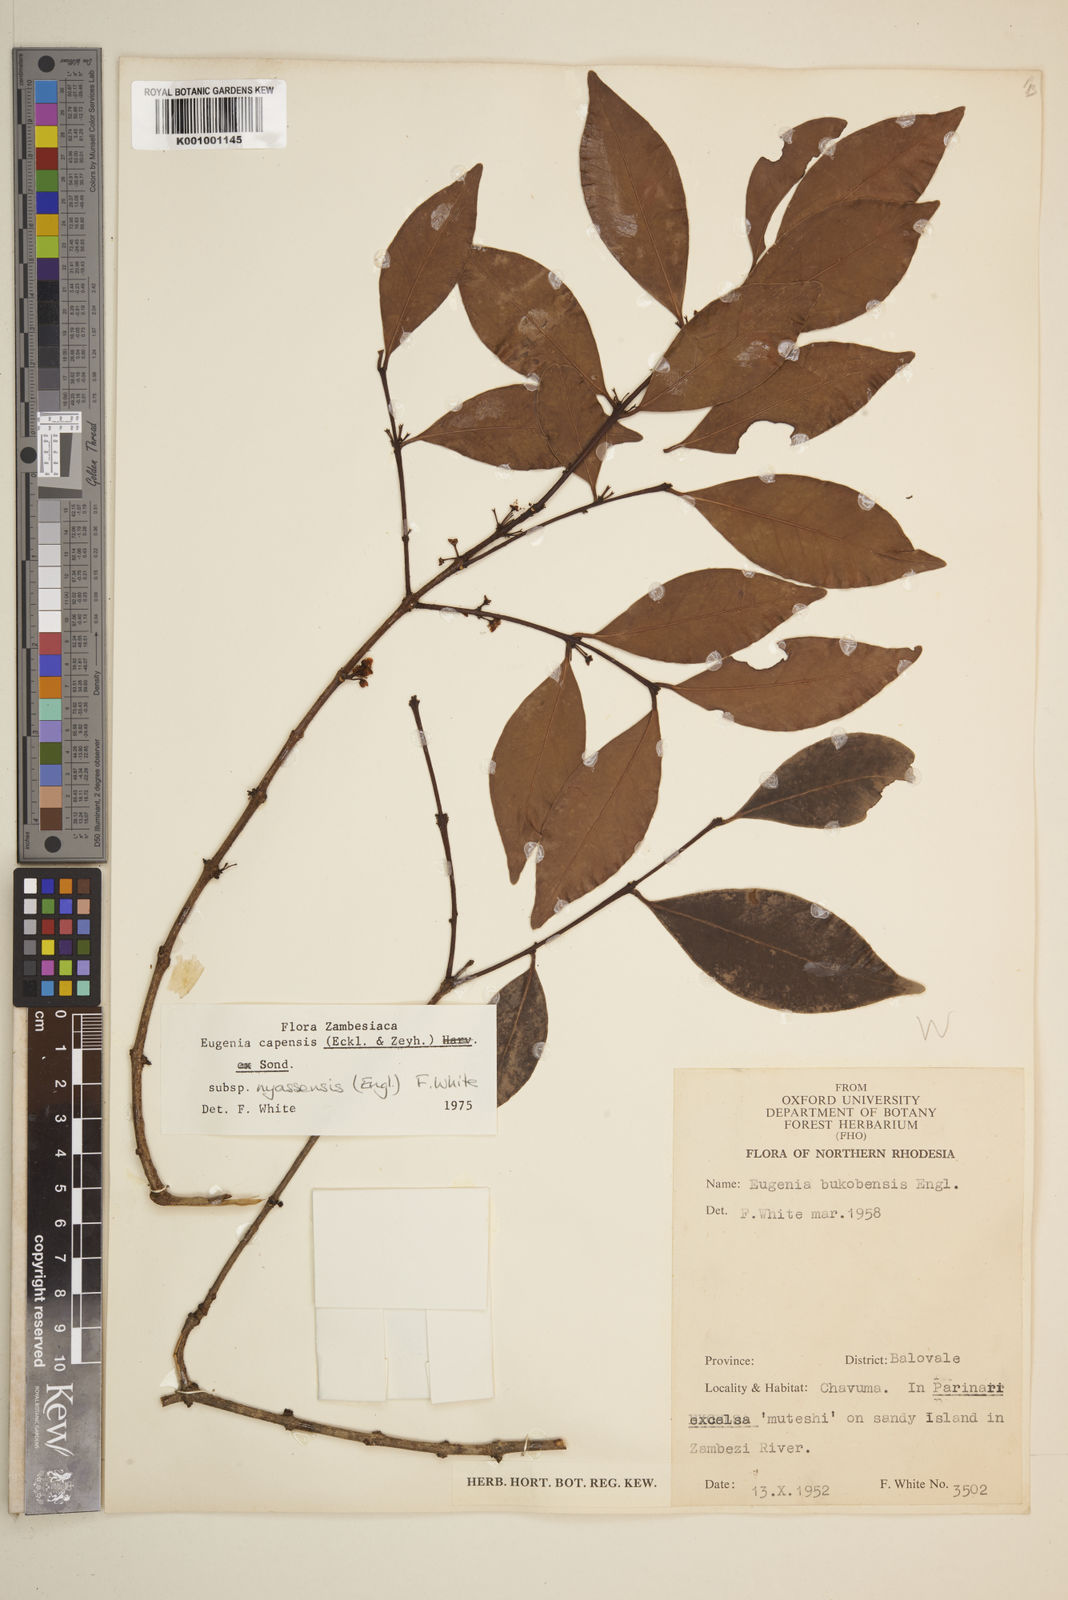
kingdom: Plantae
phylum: Tracheophyta
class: Magnoliopsida
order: Myrtales
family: Myrtaceae
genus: Eugenia
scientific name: Eugenia capensis
